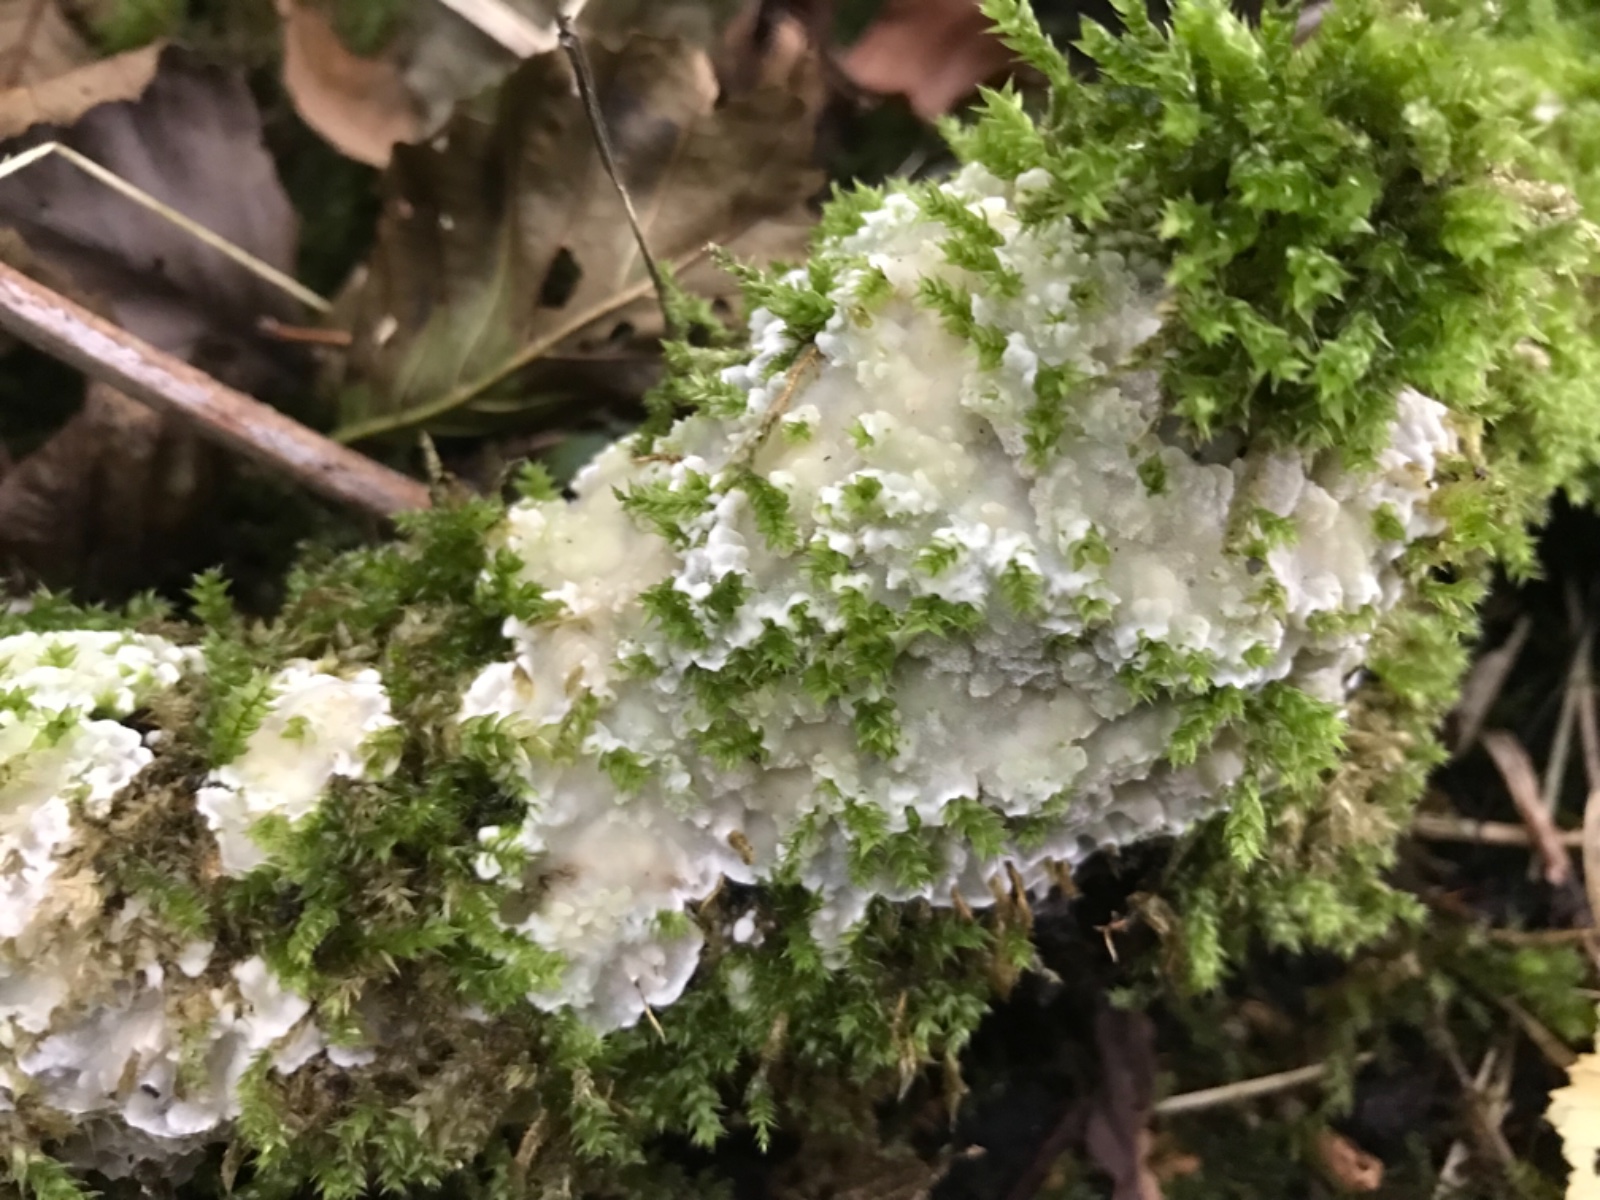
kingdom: Fungi
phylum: Basidiomycota
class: Agaricomycetes
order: Polyporales
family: Meruliaceae
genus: Physisporinus
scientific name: Physisporinus vitreus
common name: mastesvamp
